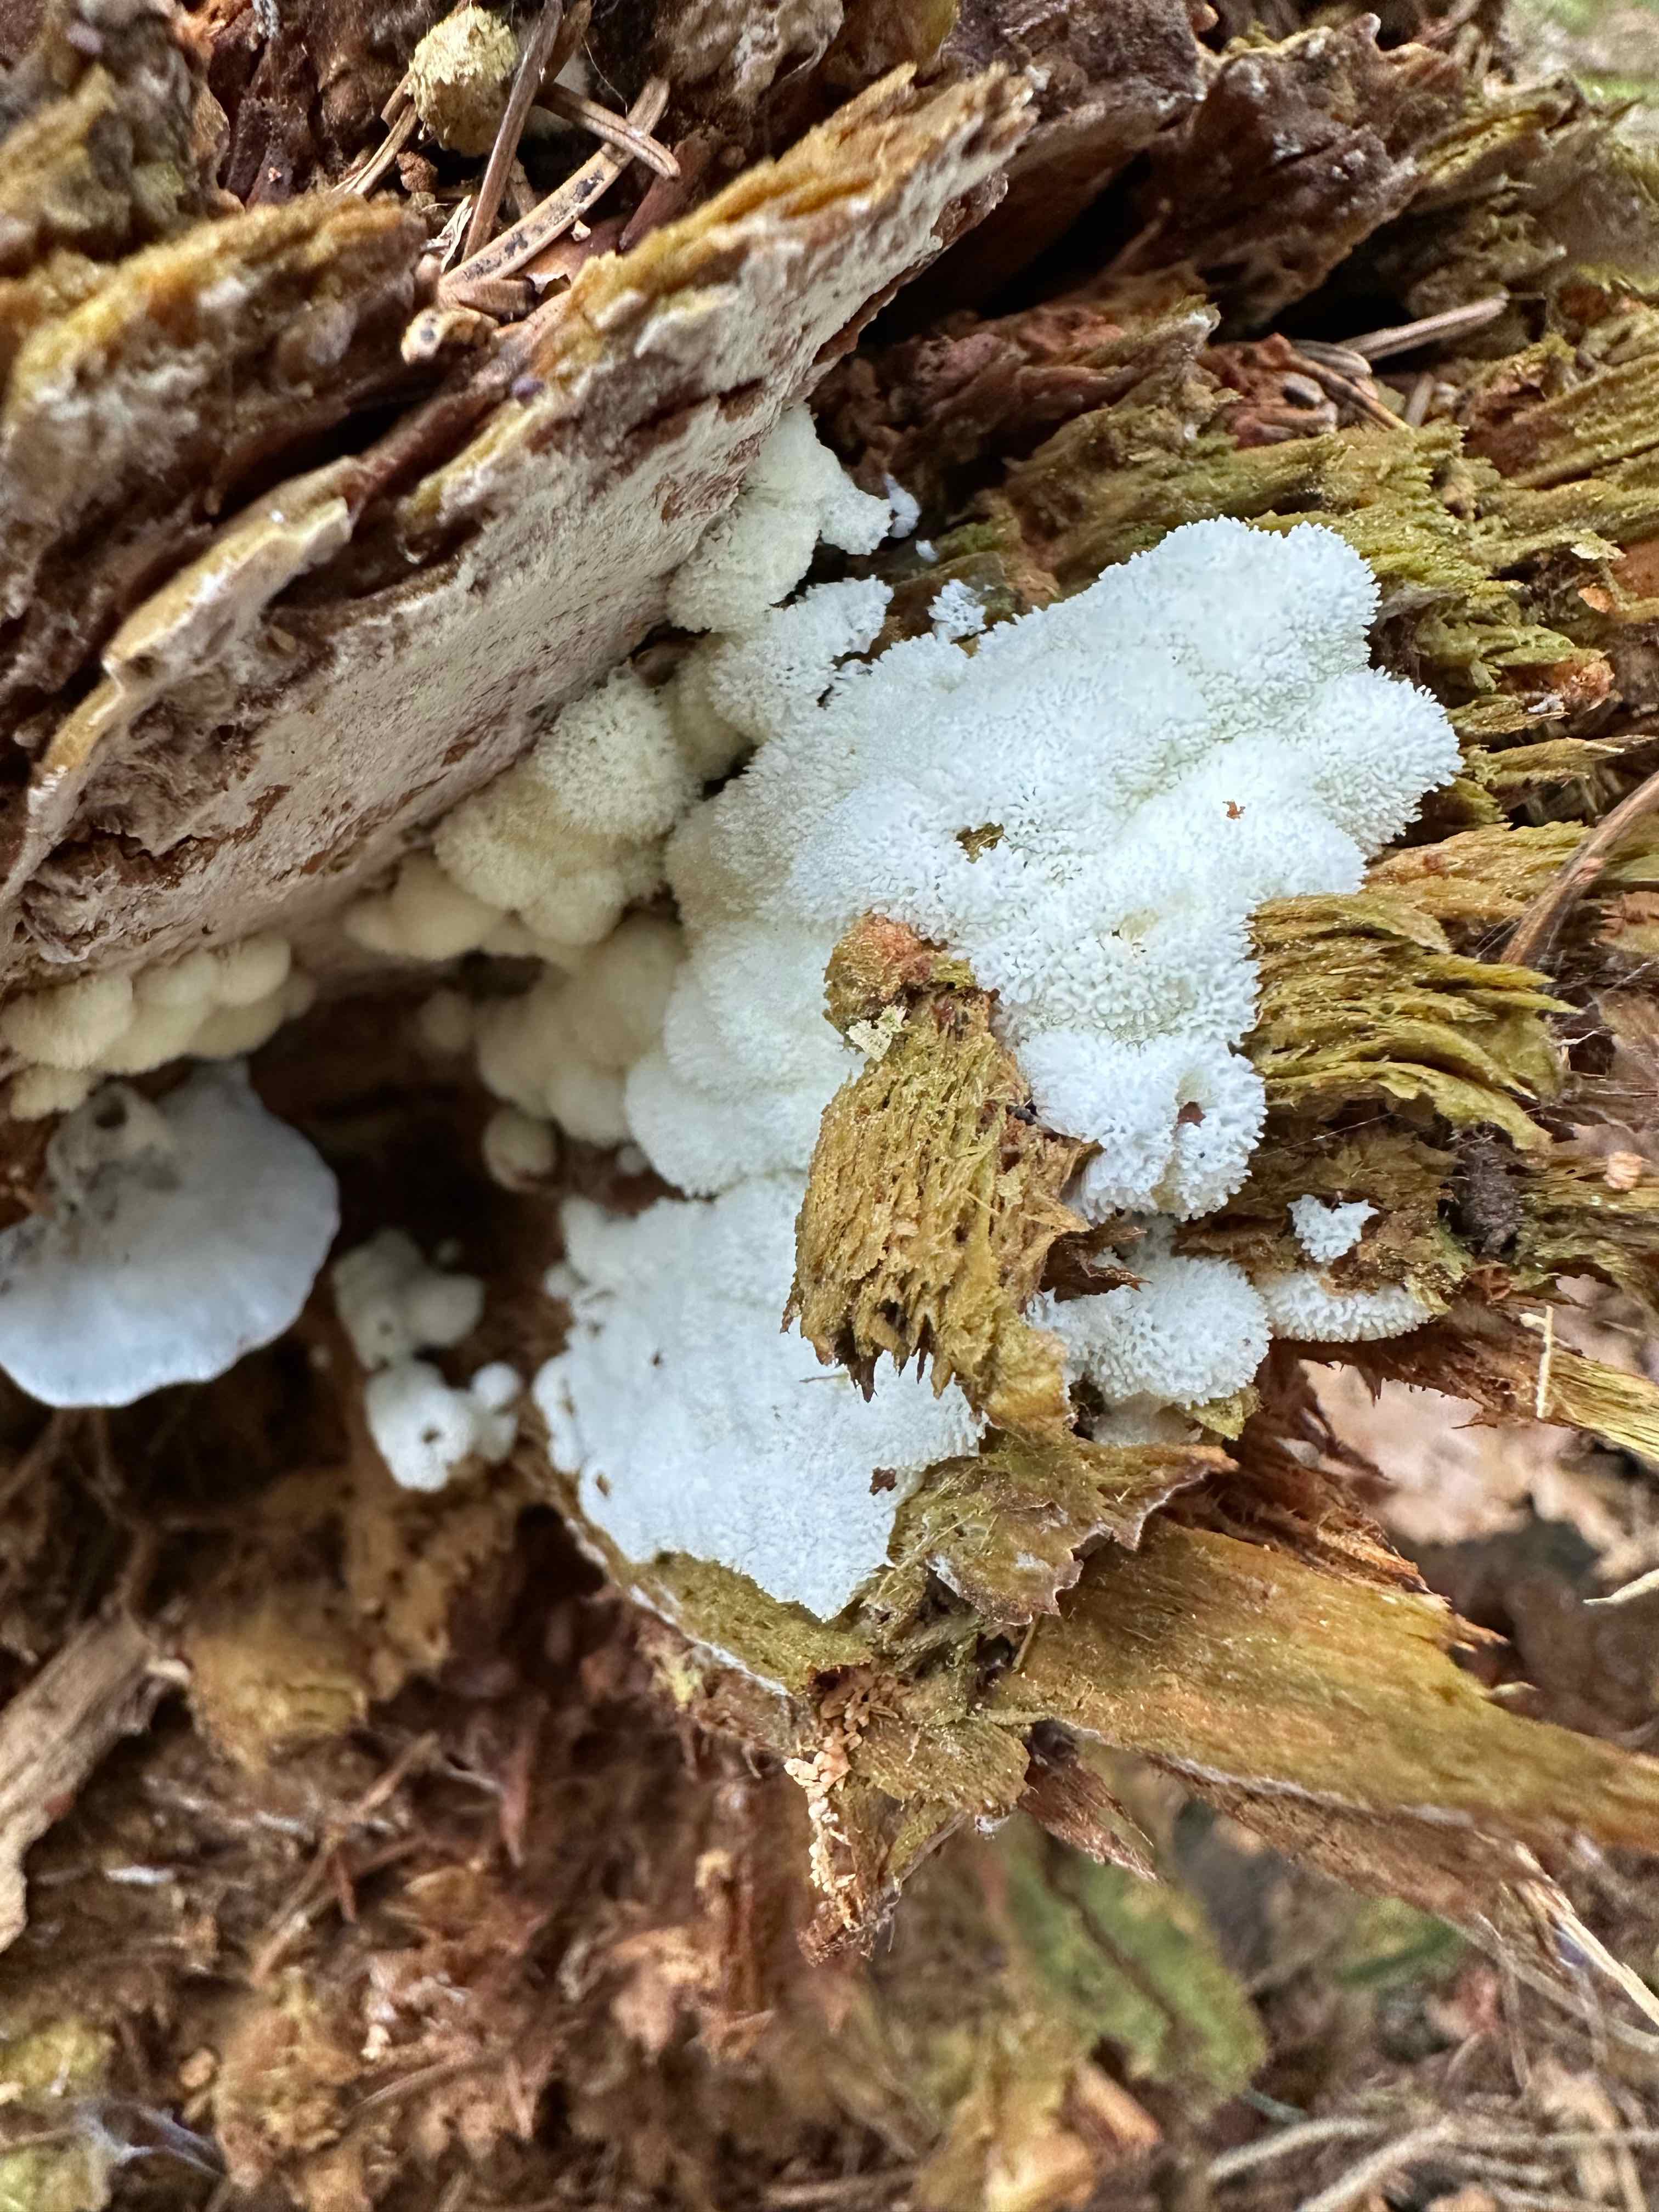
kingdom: Protozoa
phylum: Mycetozoa
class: Protosteliomycetes
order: Ceratiomyxales
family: Ceratiomyxaceae
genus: Ceratiomyxa
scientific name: Ceratiomyxa fruticulosa
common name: Honeycomb coral slime mold
